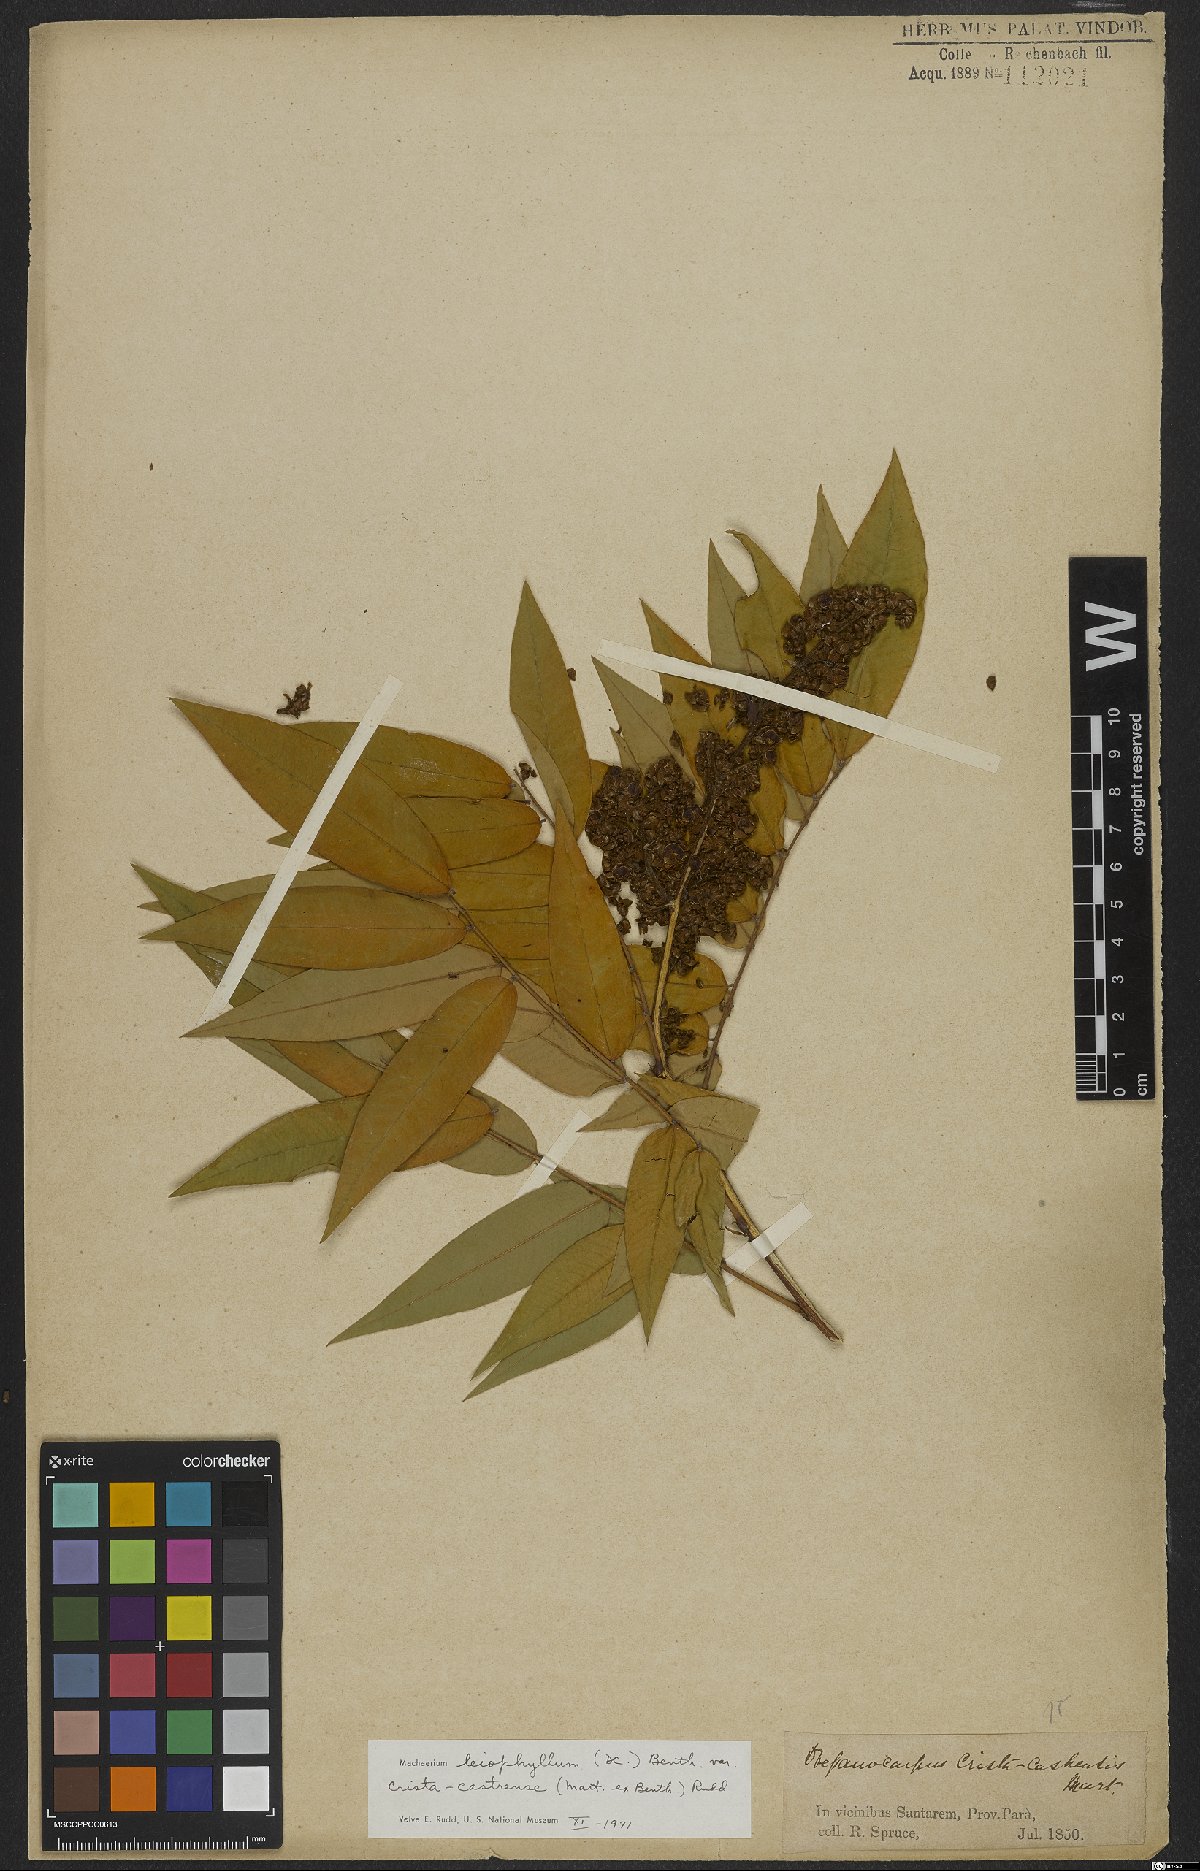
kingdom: Plantae
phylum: Tracheophyta
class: Magnoliopsida
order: Fabales
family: Fabaceae
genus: Machaerium
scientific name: Machaerium leiophyllum
